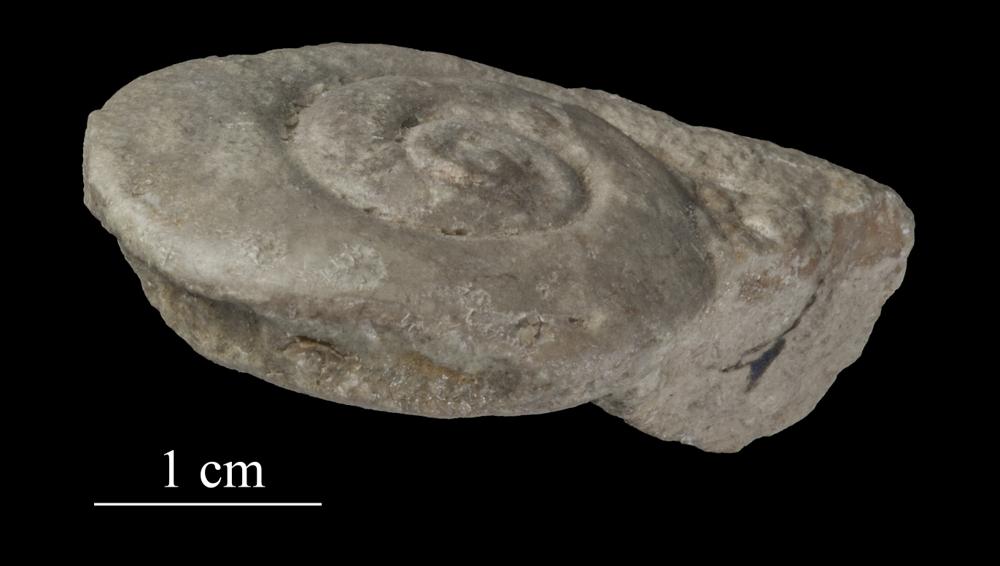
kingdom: Animalia
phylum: Mollusca
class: Gastropoda
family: Raphistomatidae
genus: Raphistoma
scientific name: Raphistoma
